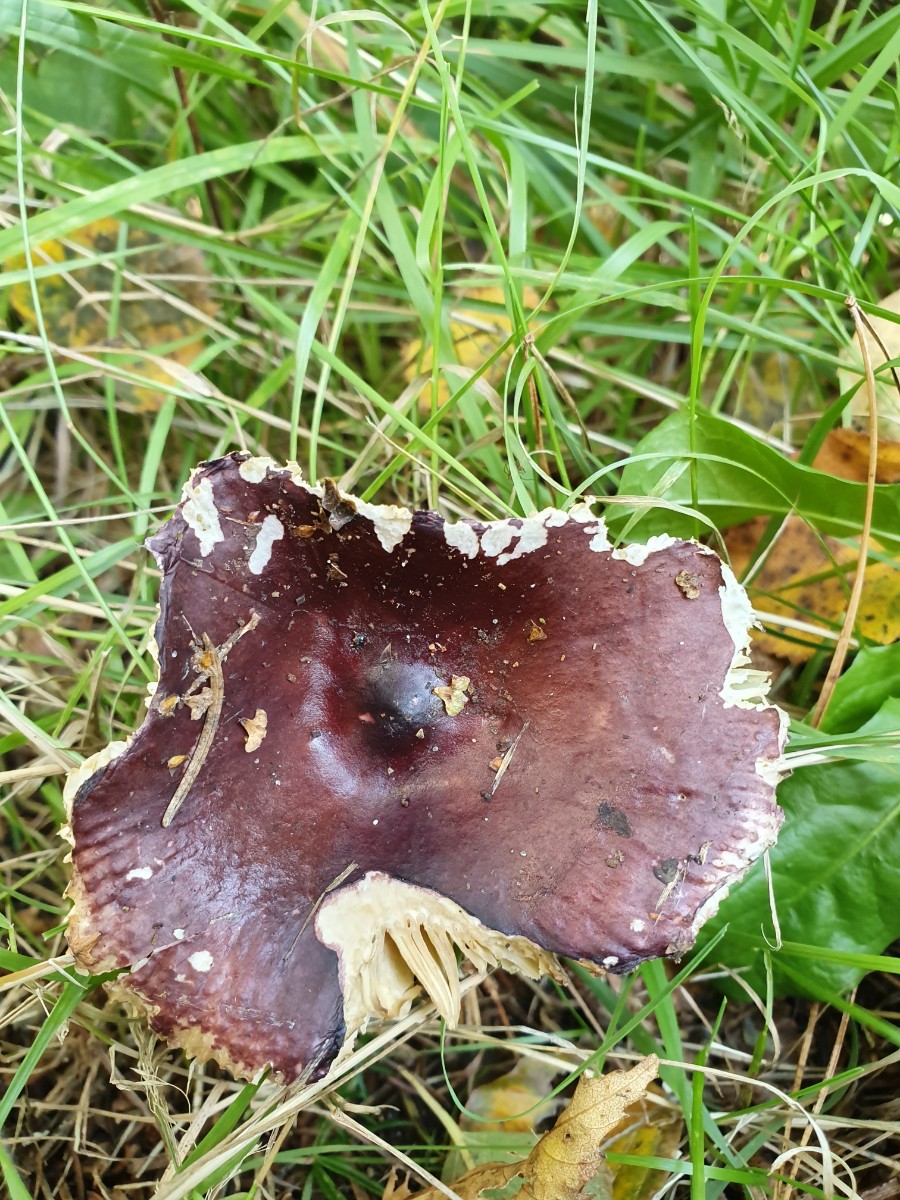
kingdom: Fungi
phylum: Basidiomycota
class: Agaricomycetes
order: Russulales
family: Russulaceae
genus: Russula
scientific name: Russula caerulea
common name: puklet skørhat
